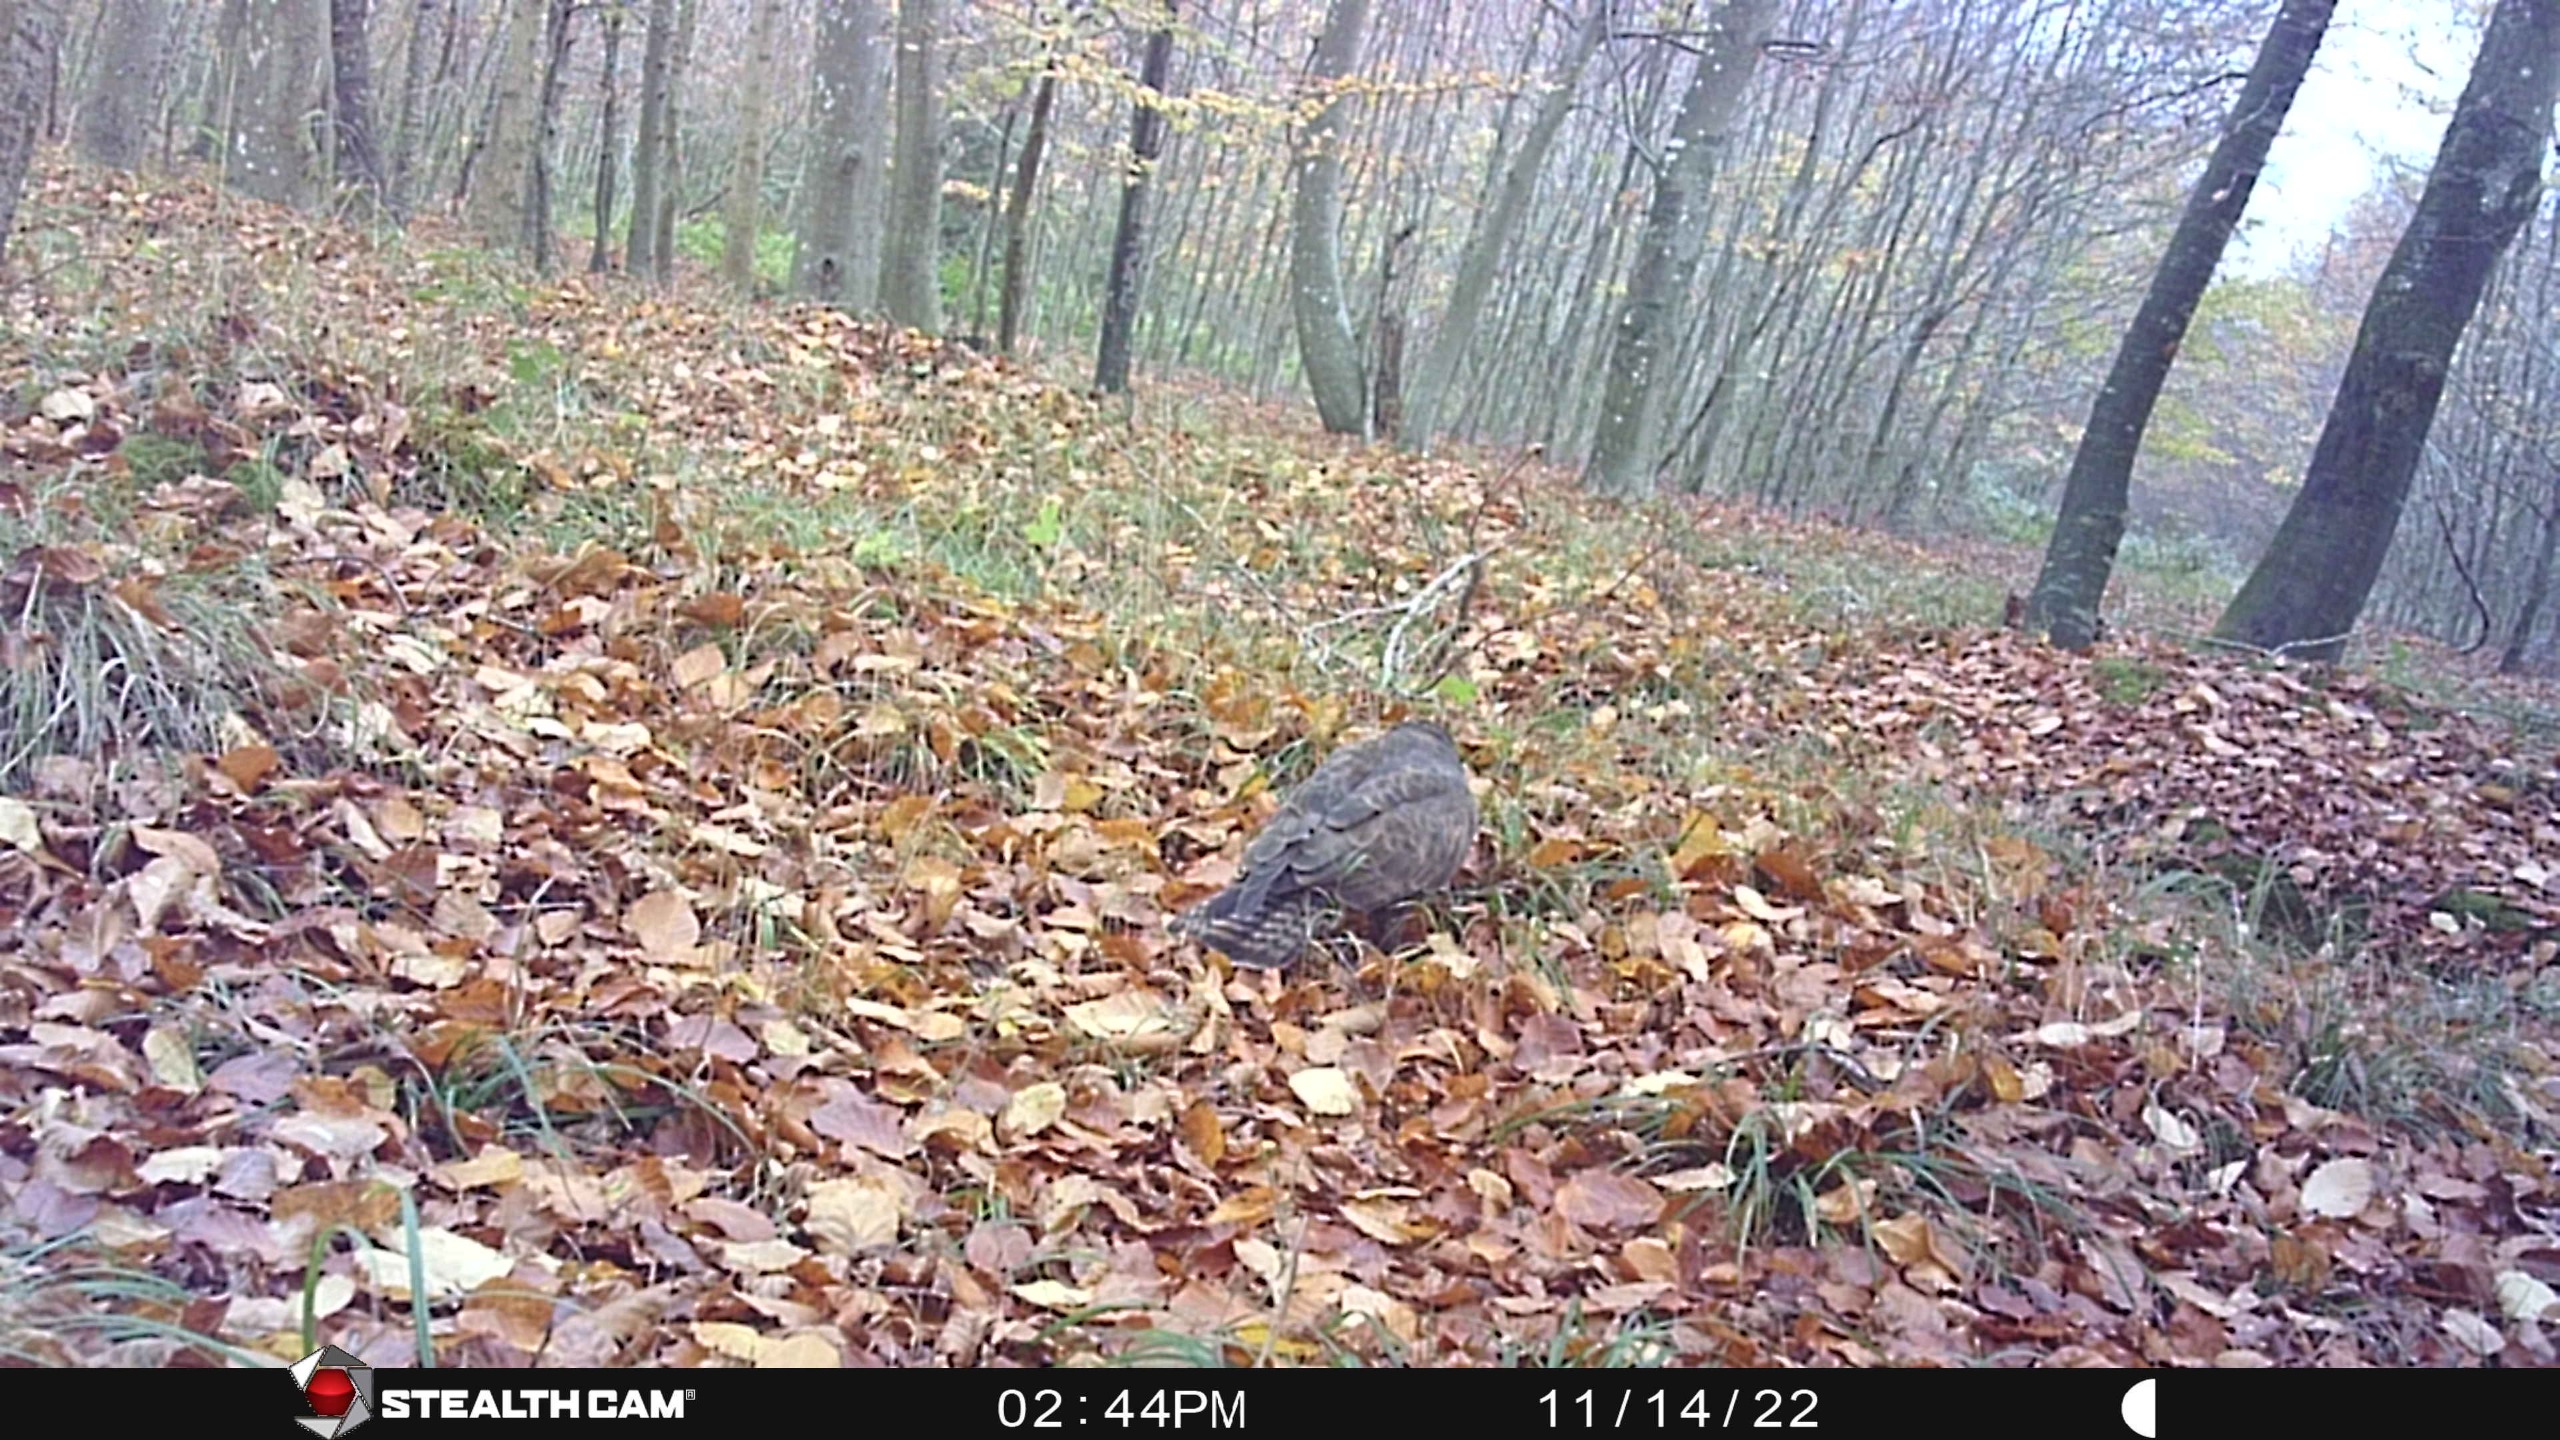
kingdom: Animalia
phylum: Chordata
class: Aves
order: Accipitriformes
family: Accipitridae
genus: Buteo
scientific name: Buteo buteo
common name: Musvåge
